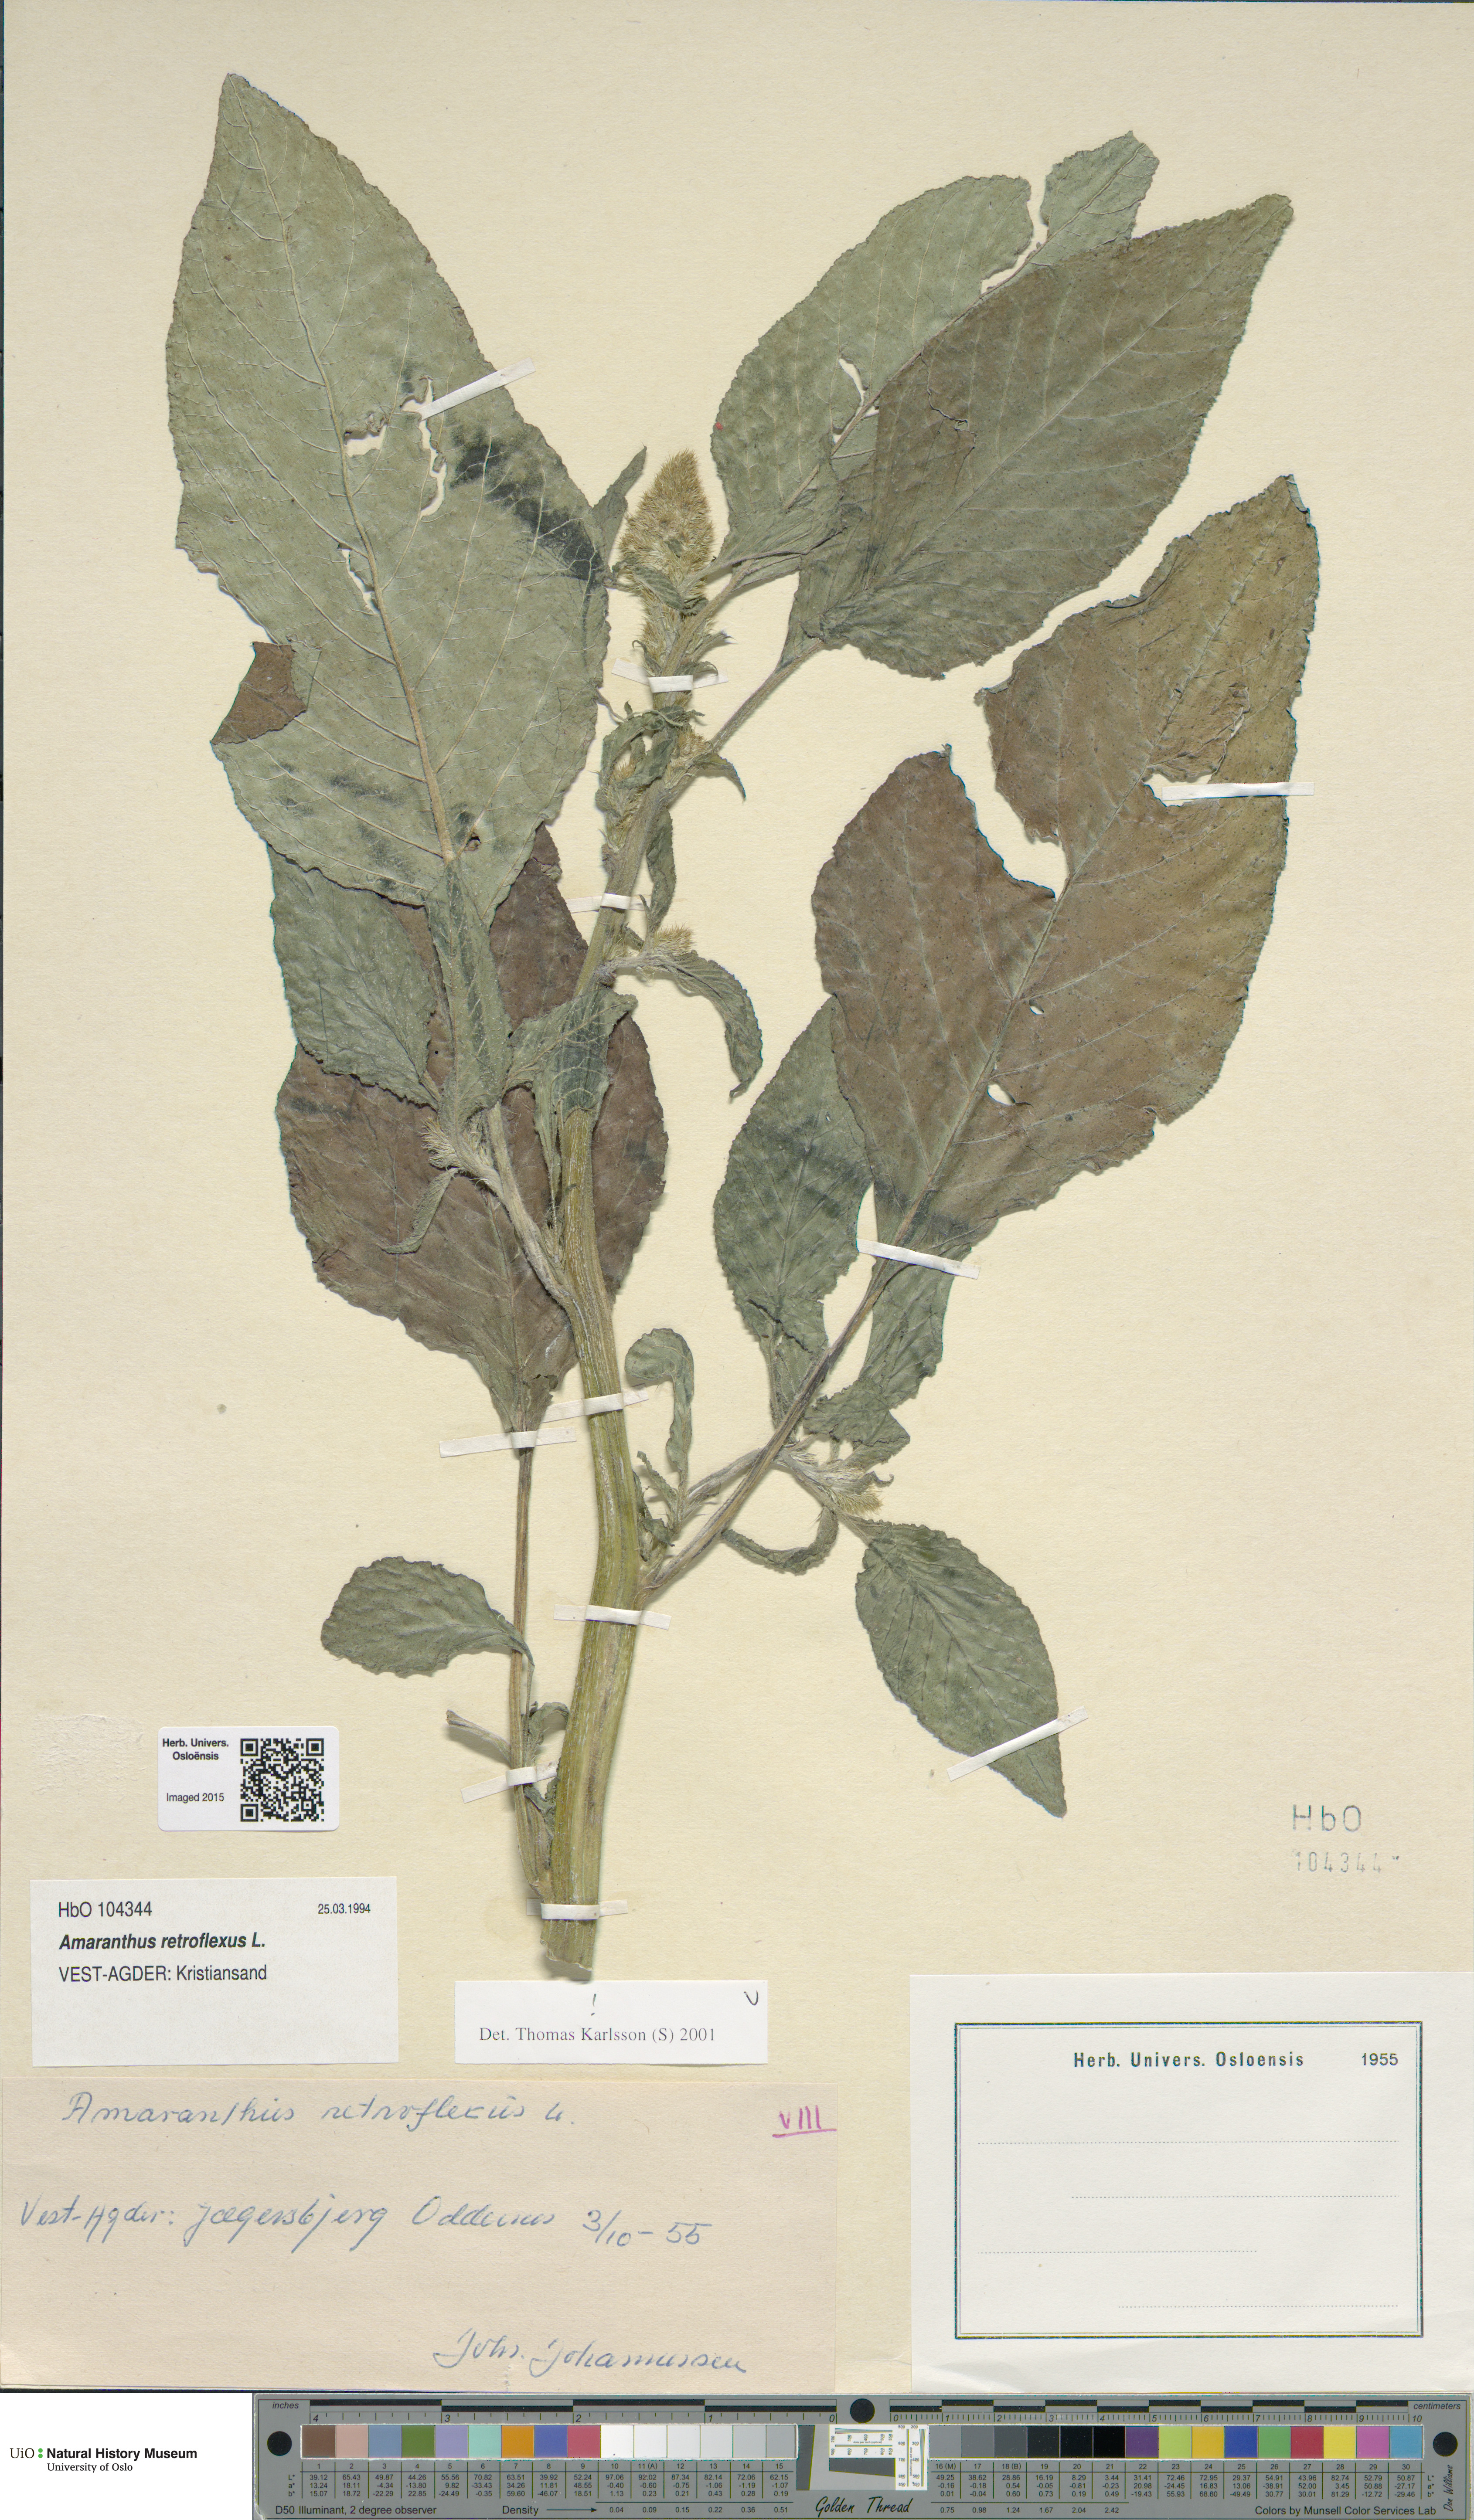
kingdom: Plantae
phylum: Tracheophyta
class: Magnoliopsida
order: Caryophyllales
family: Amaranthaceae
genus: Amaranthus
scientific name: Amaranthus retroflexus
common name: Redroot amaranth
